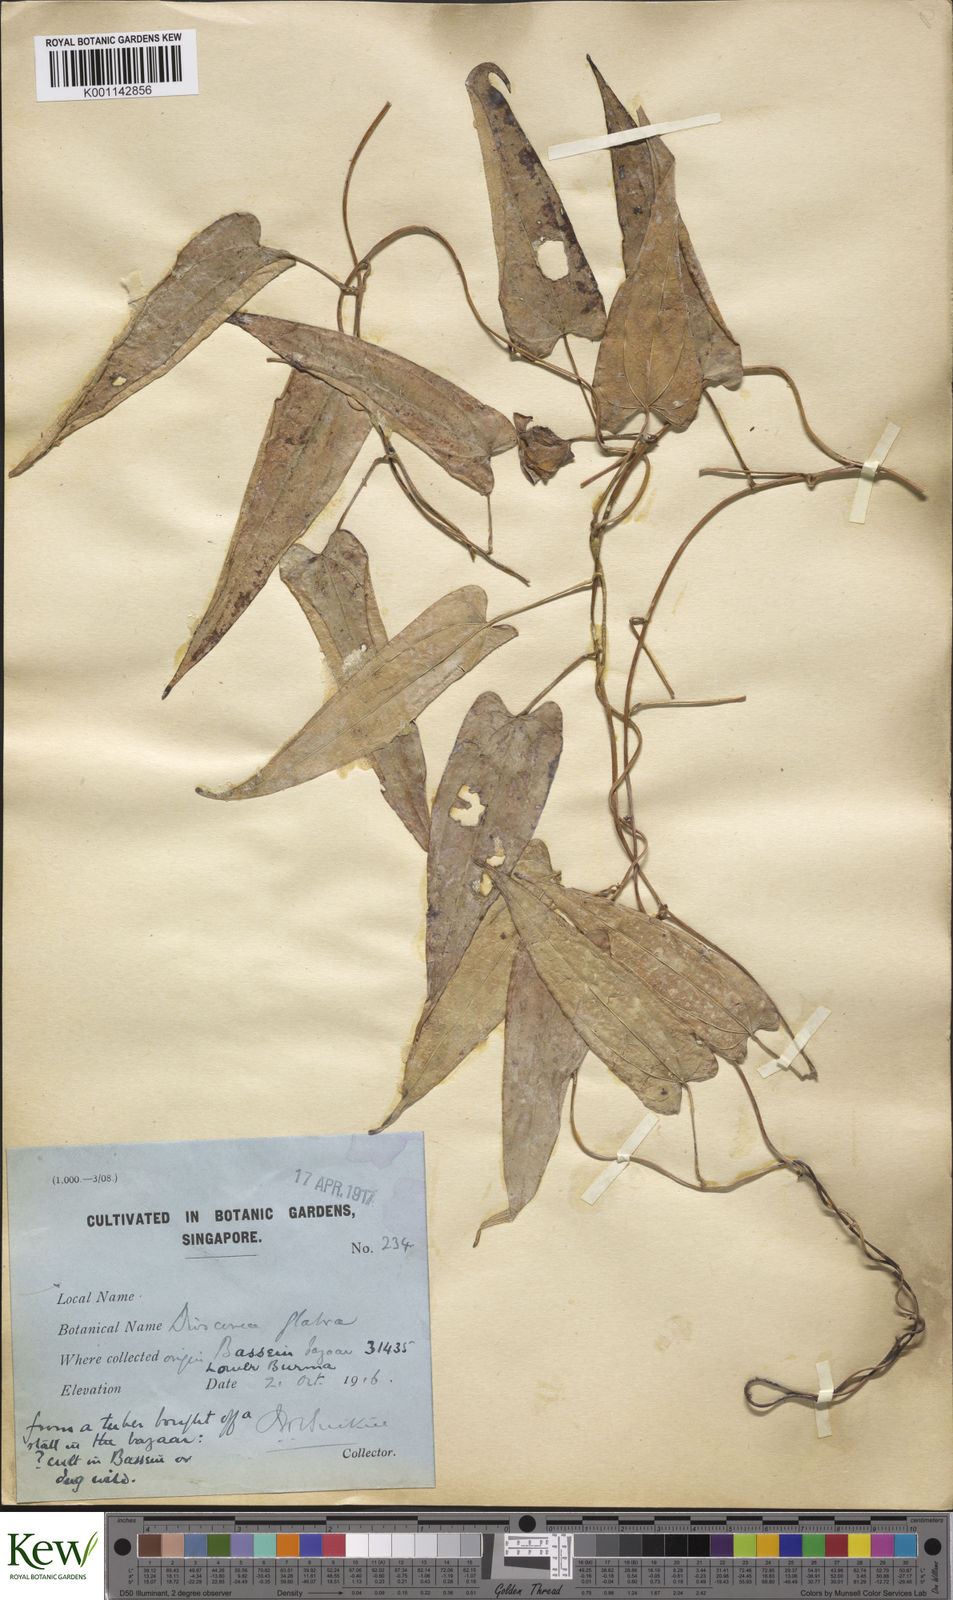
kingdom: Plantae
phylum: Tracheophyta
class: Liliopsida
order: Dioscoreales
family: Dioscoreaceae
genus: Dioscorea
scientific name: Dioscorea glabra
